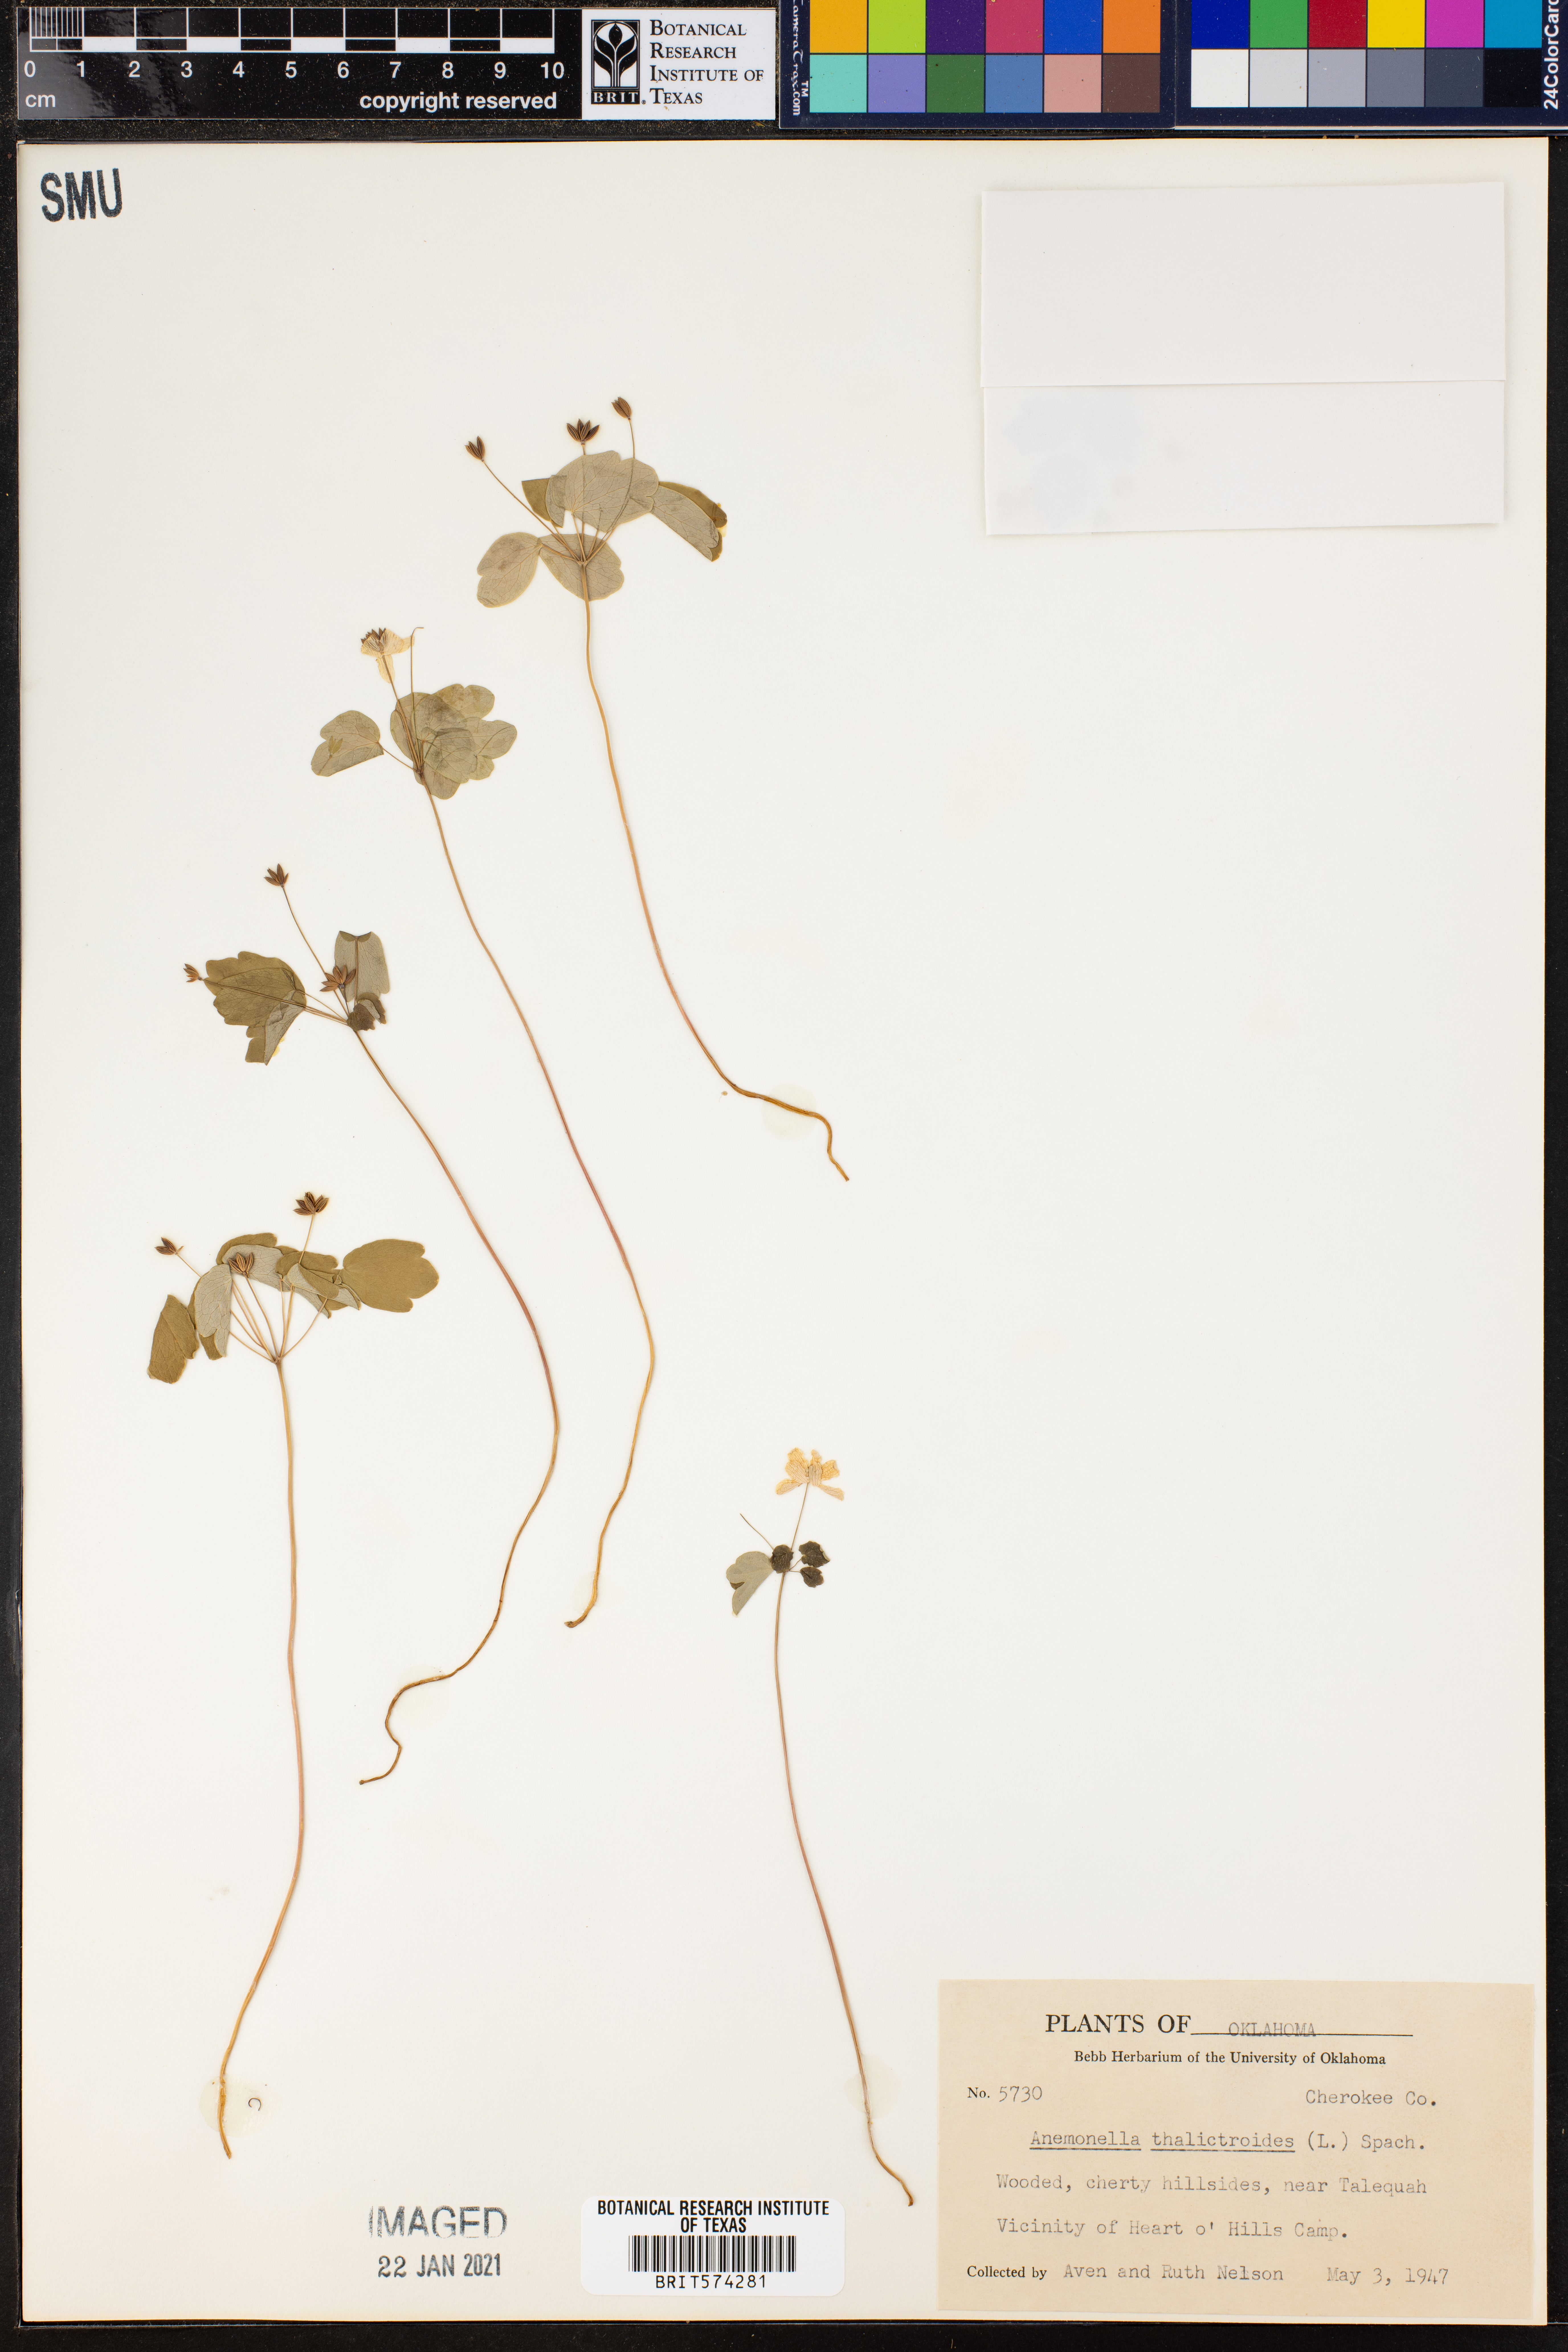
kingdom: Plantae
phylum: Tracheophyta
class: Magnoliopsida
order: Ranunculales
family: Ranunculaceae
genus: Thalictrum
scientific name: Thalictrum thalictroides
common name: Rue-anemone
